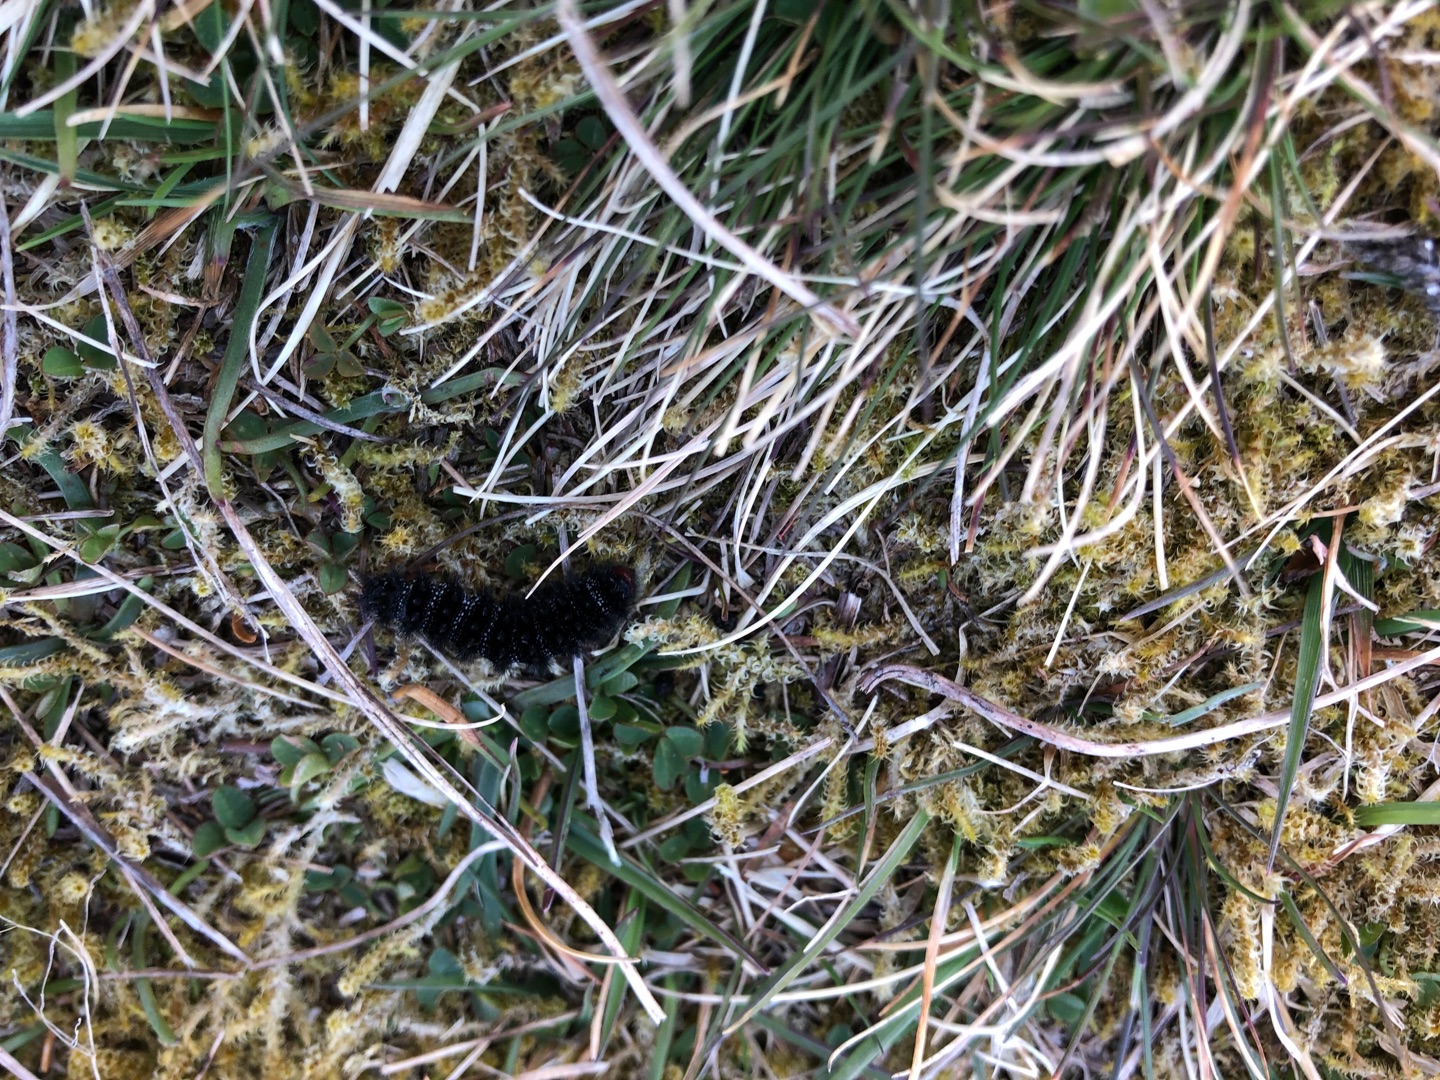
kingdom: Animalia
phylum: Arthropoda
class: Insecta
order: Lepidoptera
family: Nymphalidae
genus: Melitaea
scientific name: Melitaea cinxia
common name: Okkergul pletvinge
